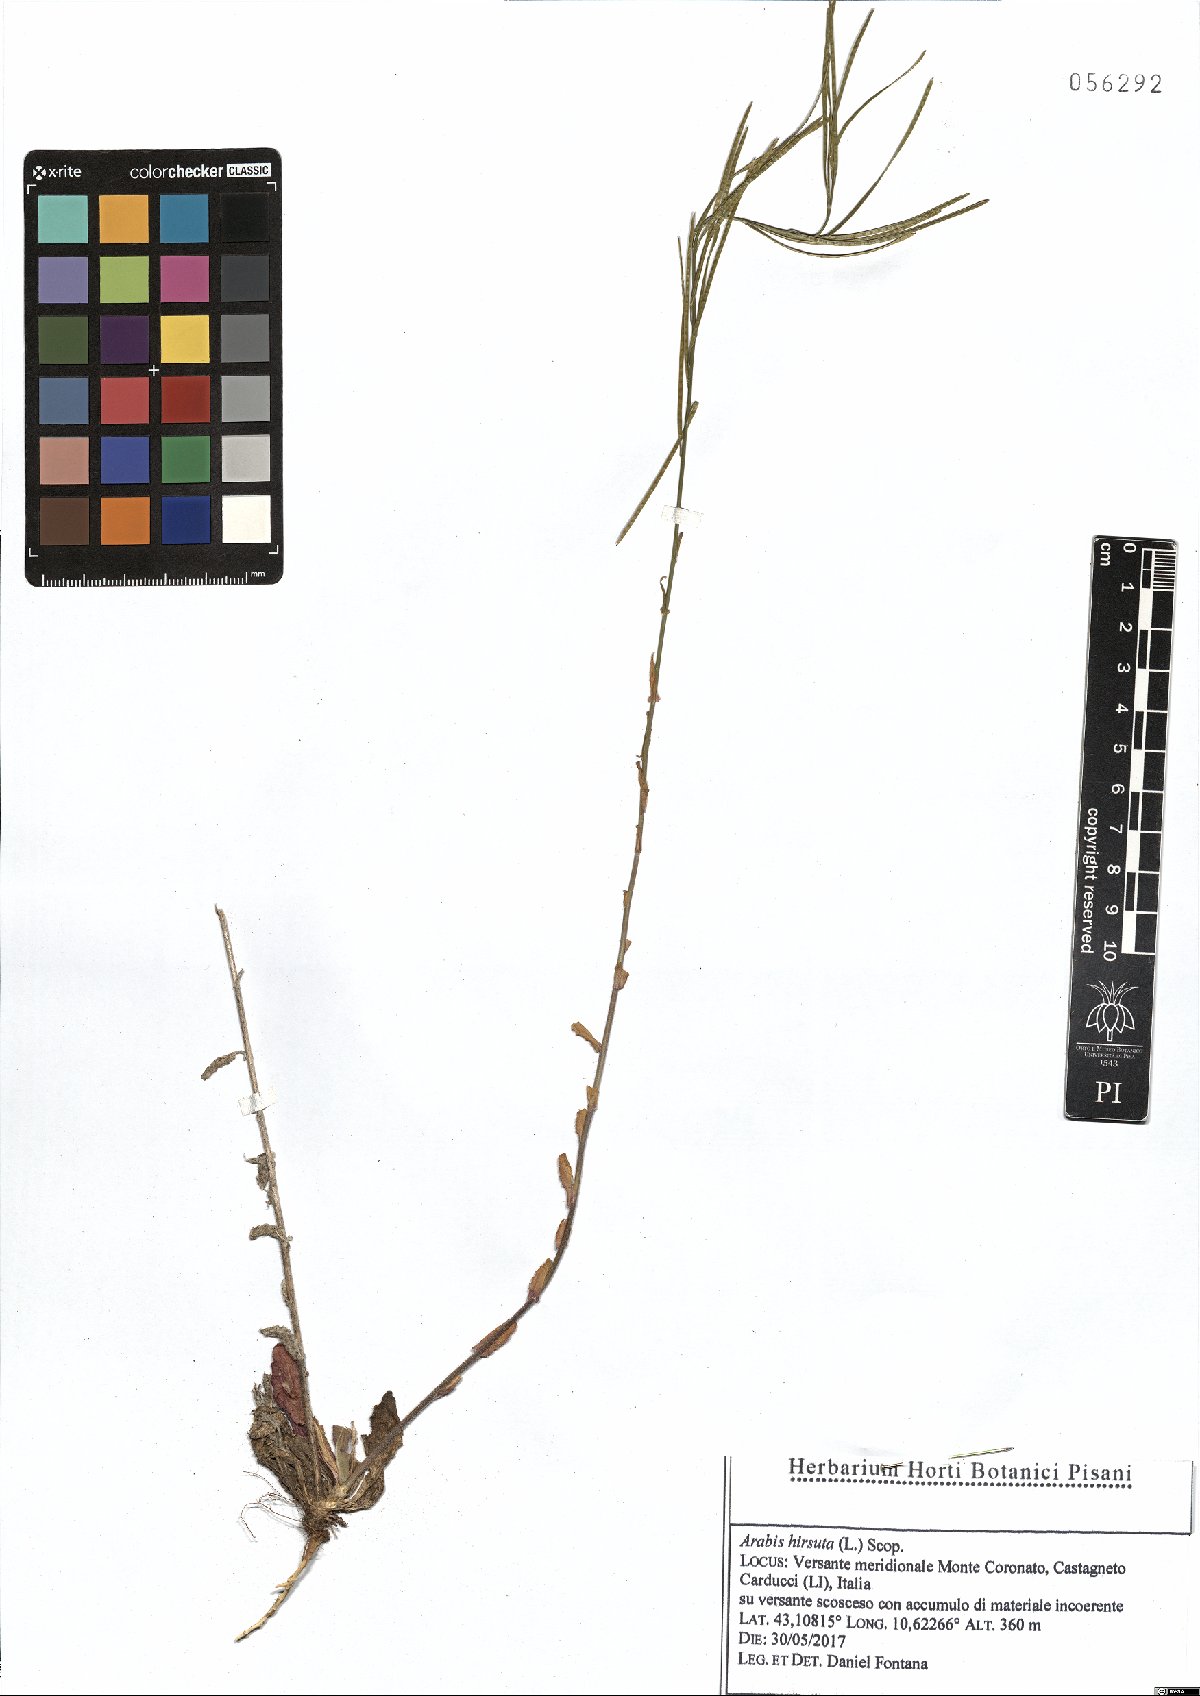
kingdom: Plantae
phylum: Tracheophyta
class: Magnoliopsida
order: Brassicales
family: Brassicaceae
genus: Arabis
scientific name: Arabis hirsuta
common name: Hairy rock-cress
